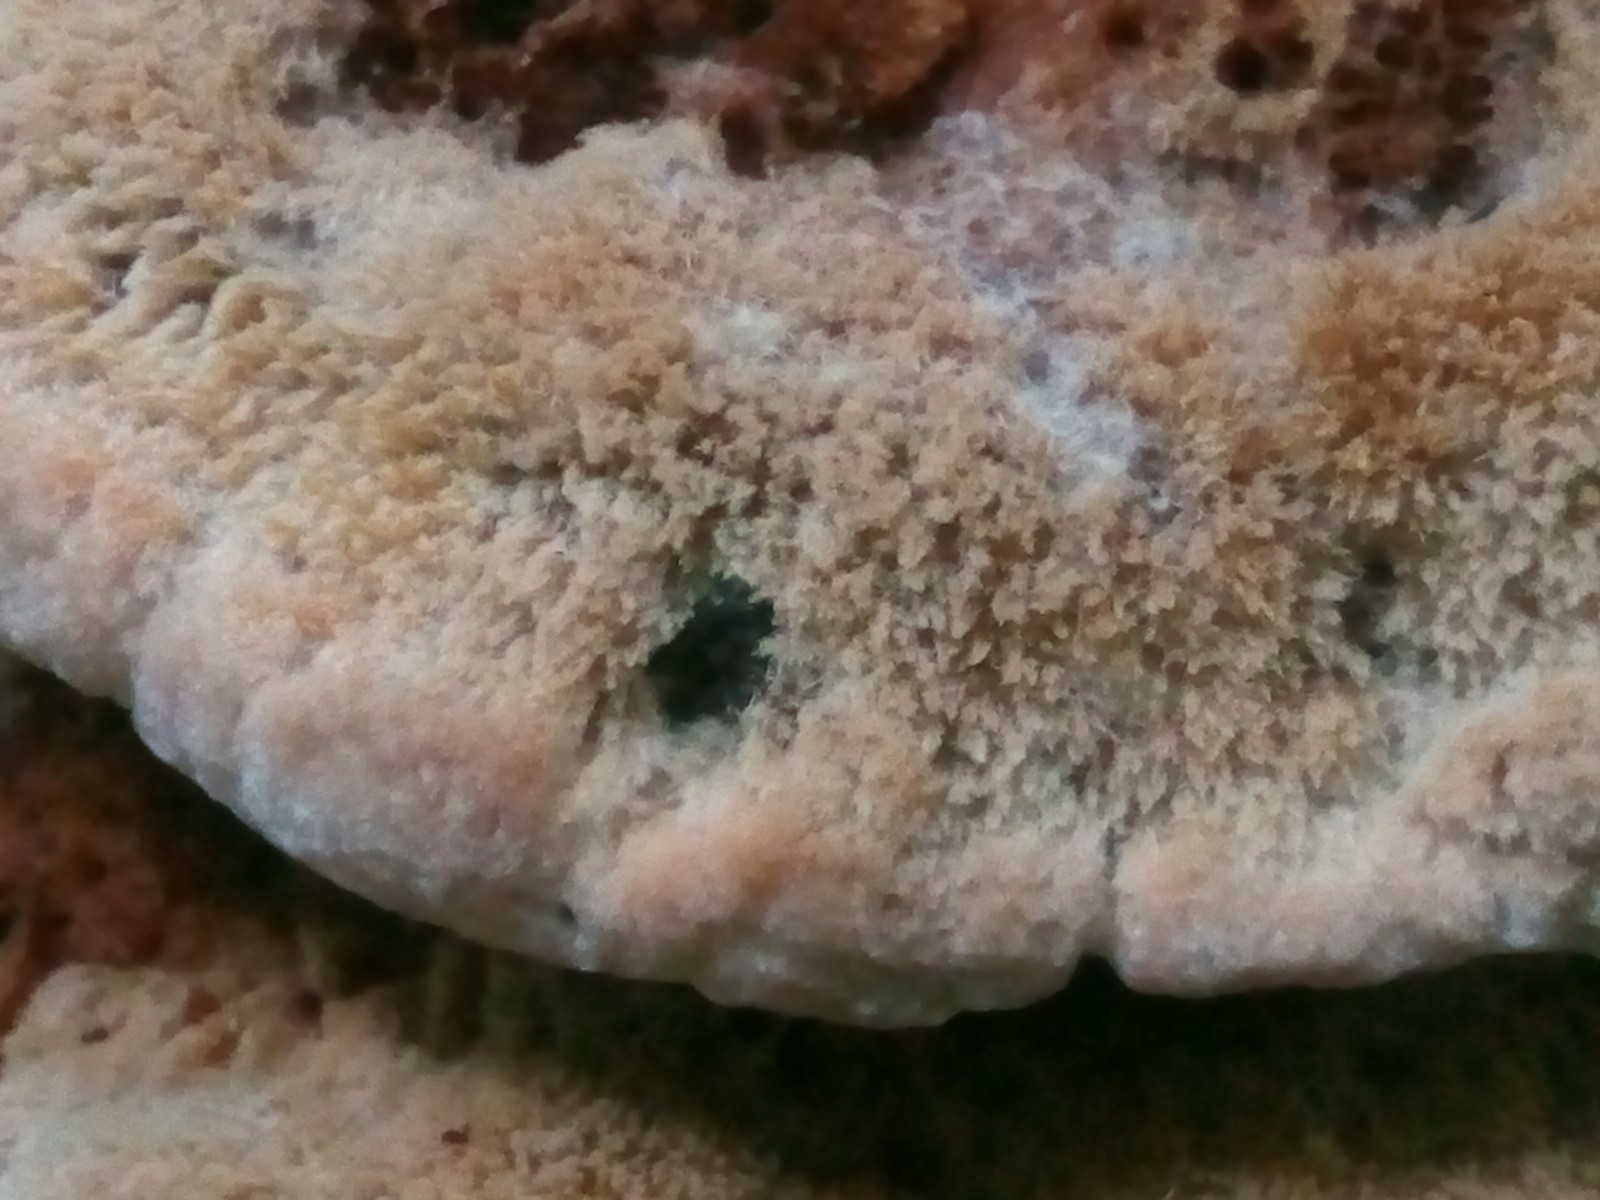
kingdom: Fungi
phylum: Basidiomycota
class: Agaricomycetes
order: Hymenochaetales
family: Hymenochaetaceae
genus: Inonotus
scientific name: Inonotus cuticularis
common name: kroghåret spejlporesvamp
